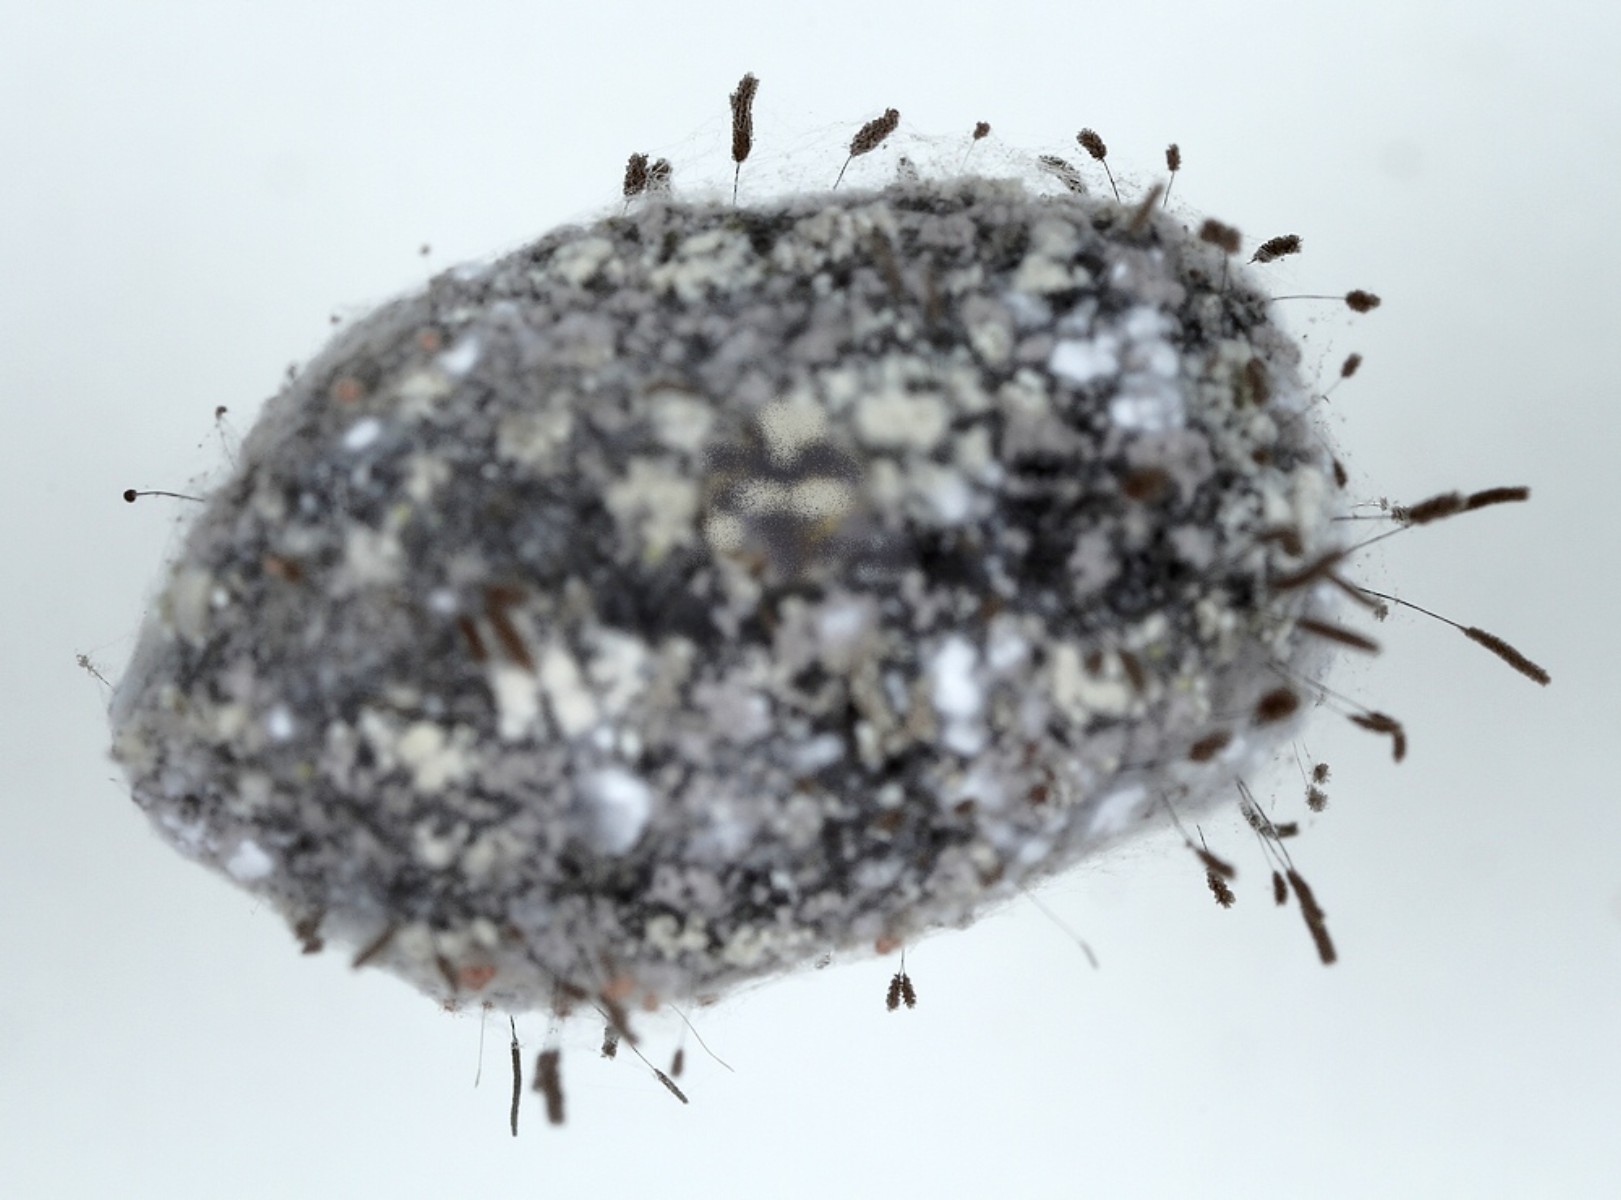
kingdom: Fungi
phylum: Ascomycota
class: Sordariomycetes
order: Microascales
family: Microascaceae
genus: Cephalotrichum
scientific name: Cephalotrichum stemonitis
